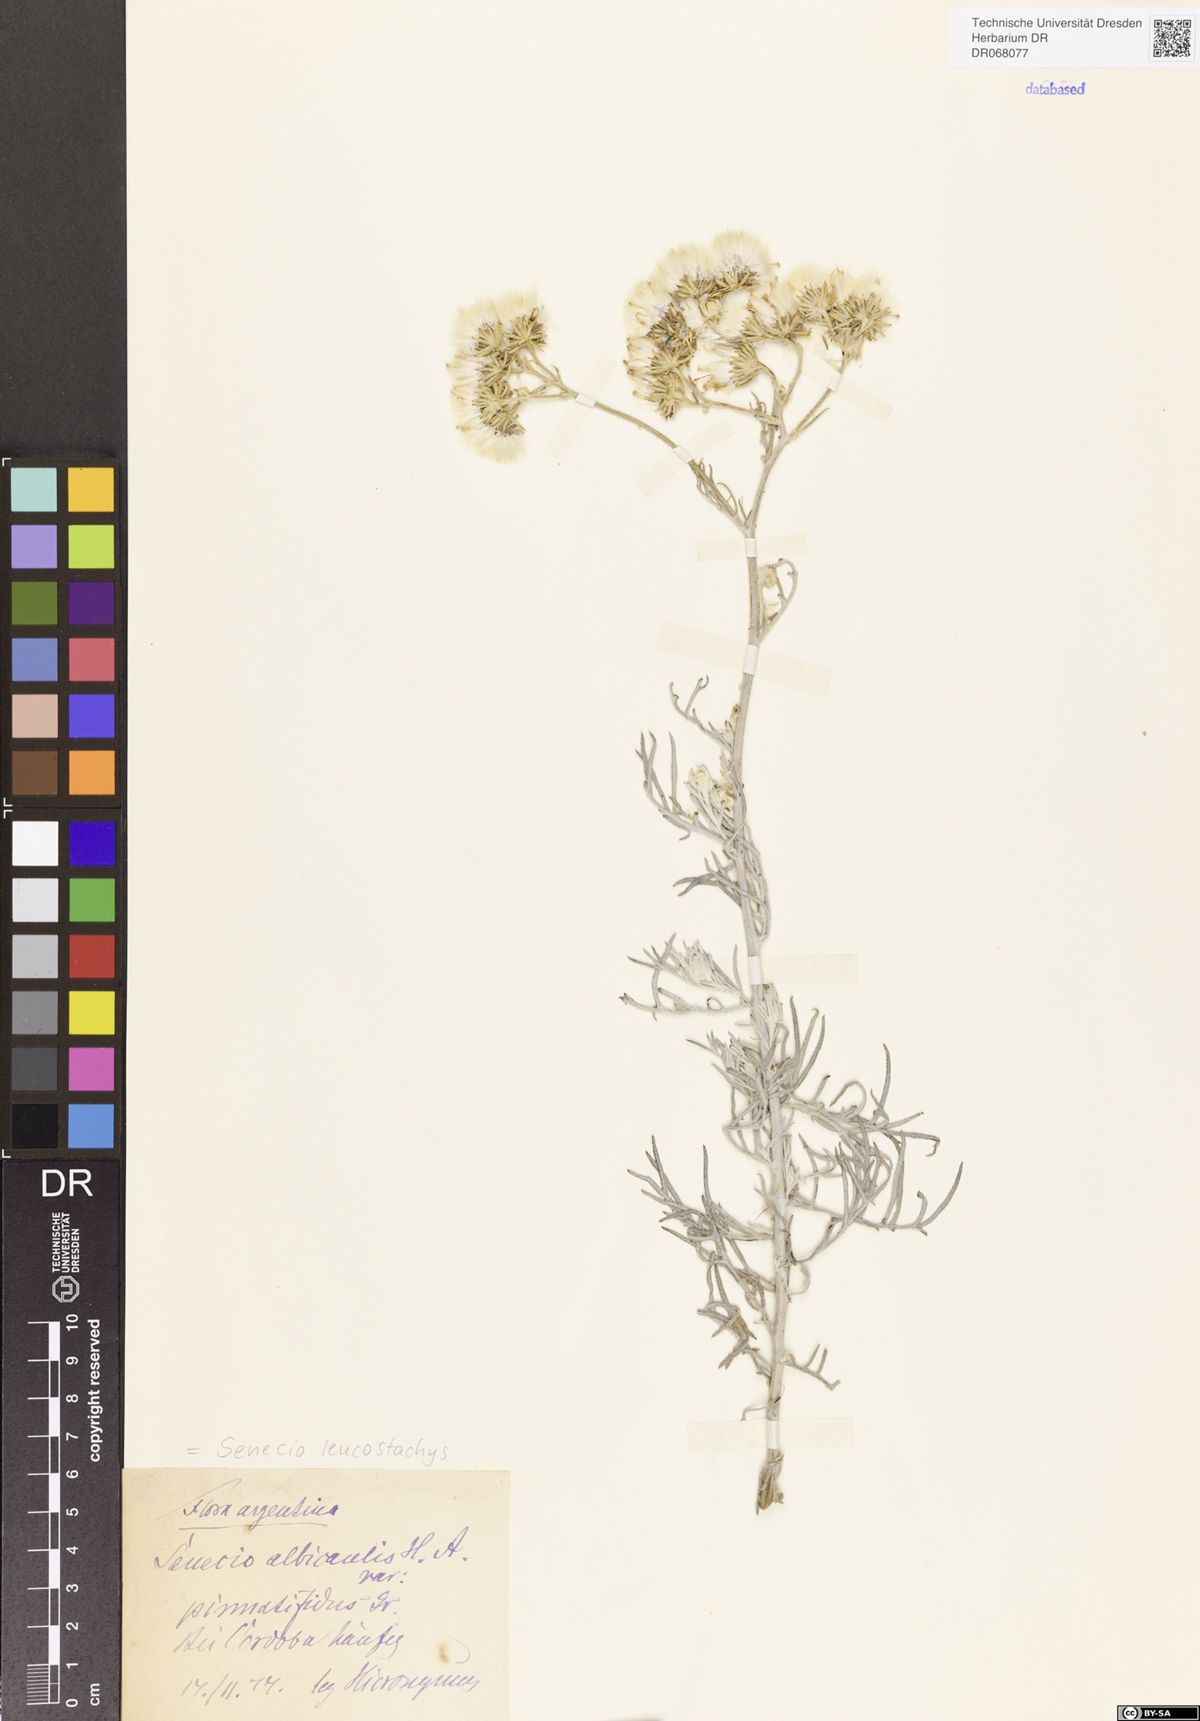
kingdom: Plantae
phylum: Tracheophyta
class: Magnoliopsida
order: Asterales
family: Asteraceae
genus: Senecio
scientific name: Senecio leucostachys
